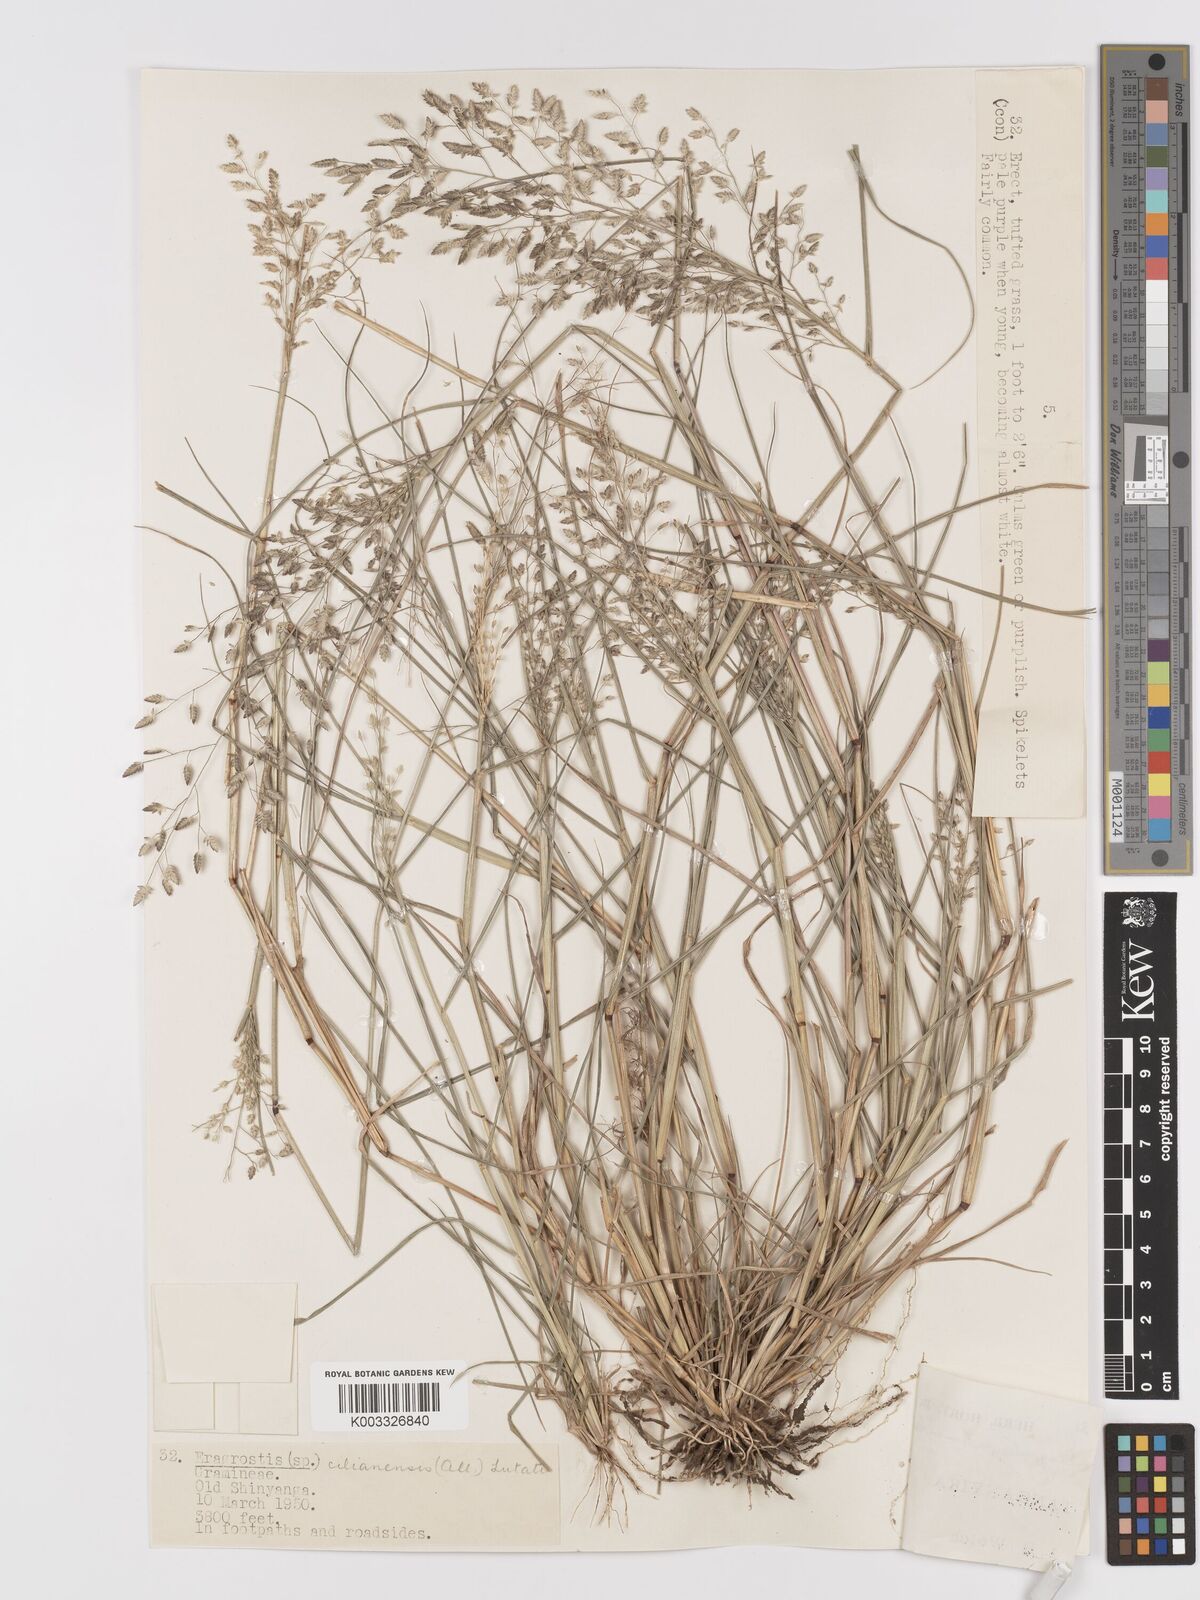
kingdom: Plantae
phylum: Tracheophyta
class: Liliopsida
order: Poales
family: Poaceae
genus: Eragrostis
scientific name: Eragrostis cilianensis
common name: Stinkgrass
